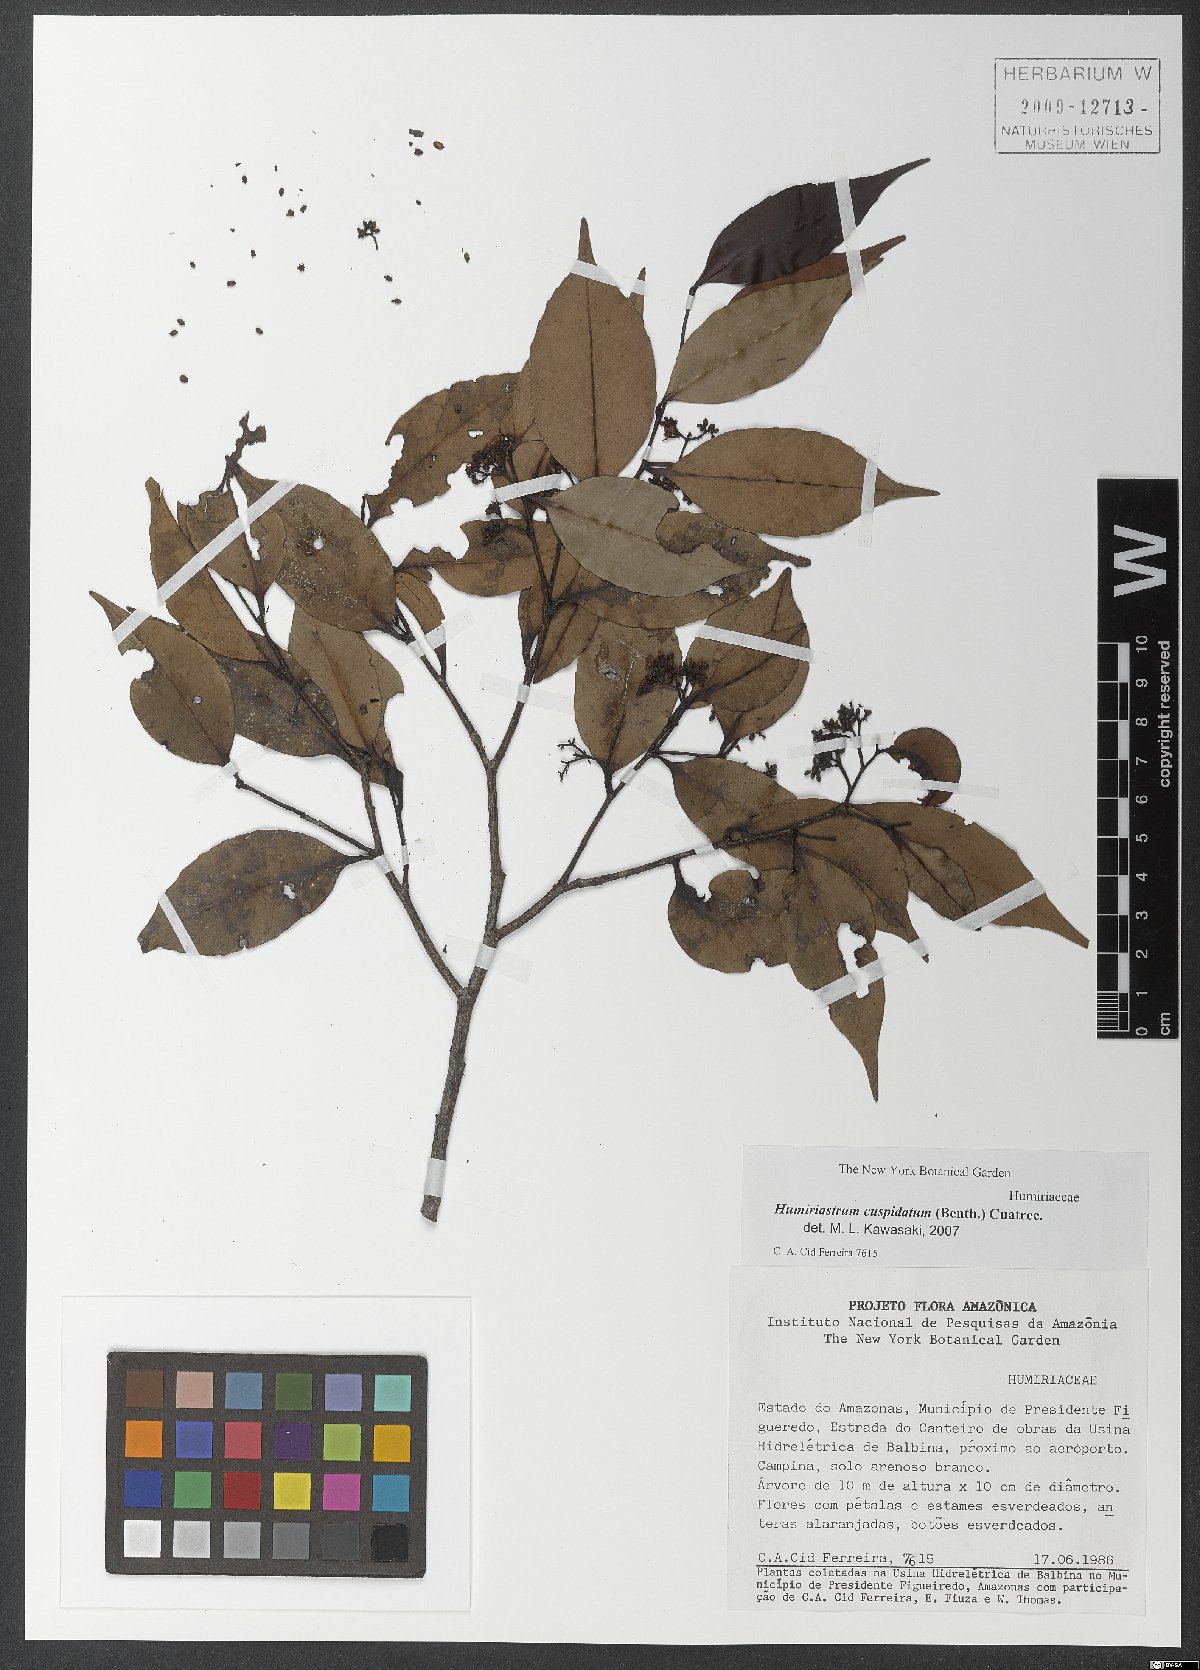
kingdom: Plantae
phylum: Tracheophyta
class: Magnoliopsida
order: Malpighiales
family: Humiriaceae
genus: Humiriastrum
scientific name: Humiriastrum cuspidatum
